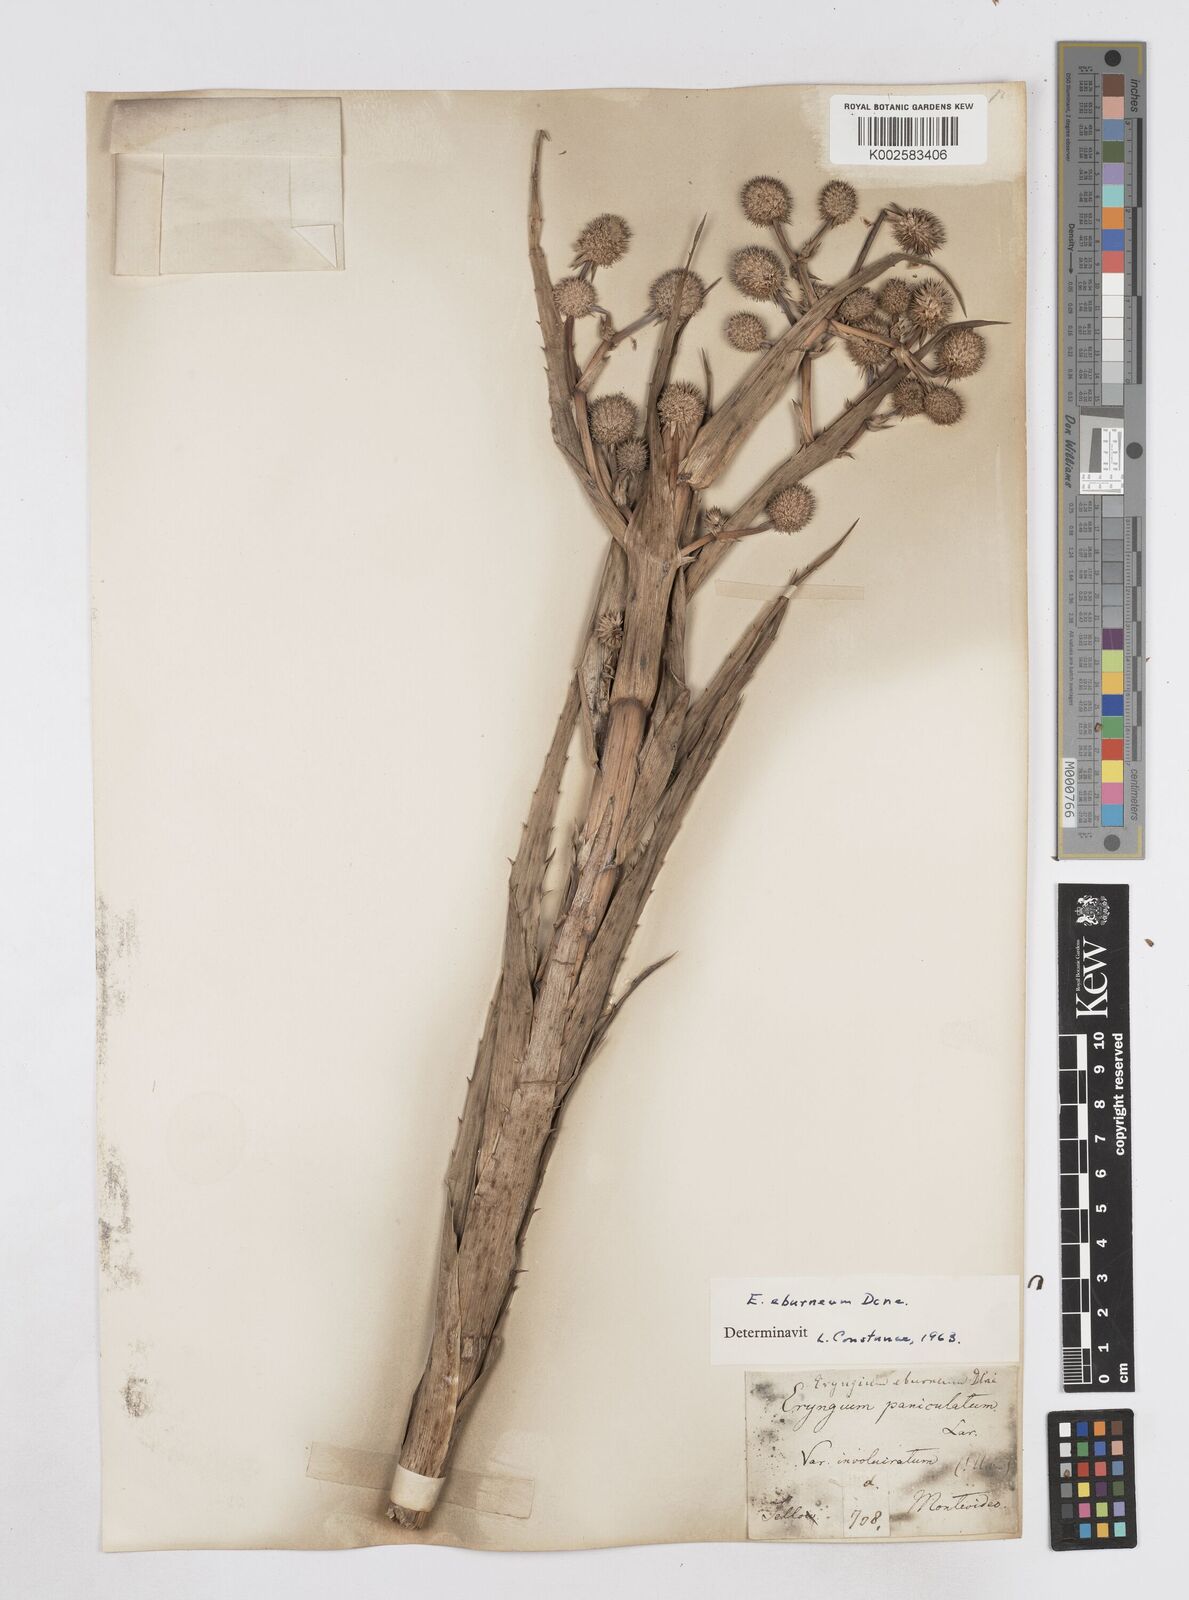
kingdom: Plantae
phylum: Tracheophyta
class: Magnoliopsida
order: Apiales
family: Apiaceae
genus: Eryngium
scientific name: Eryngium eburneum
